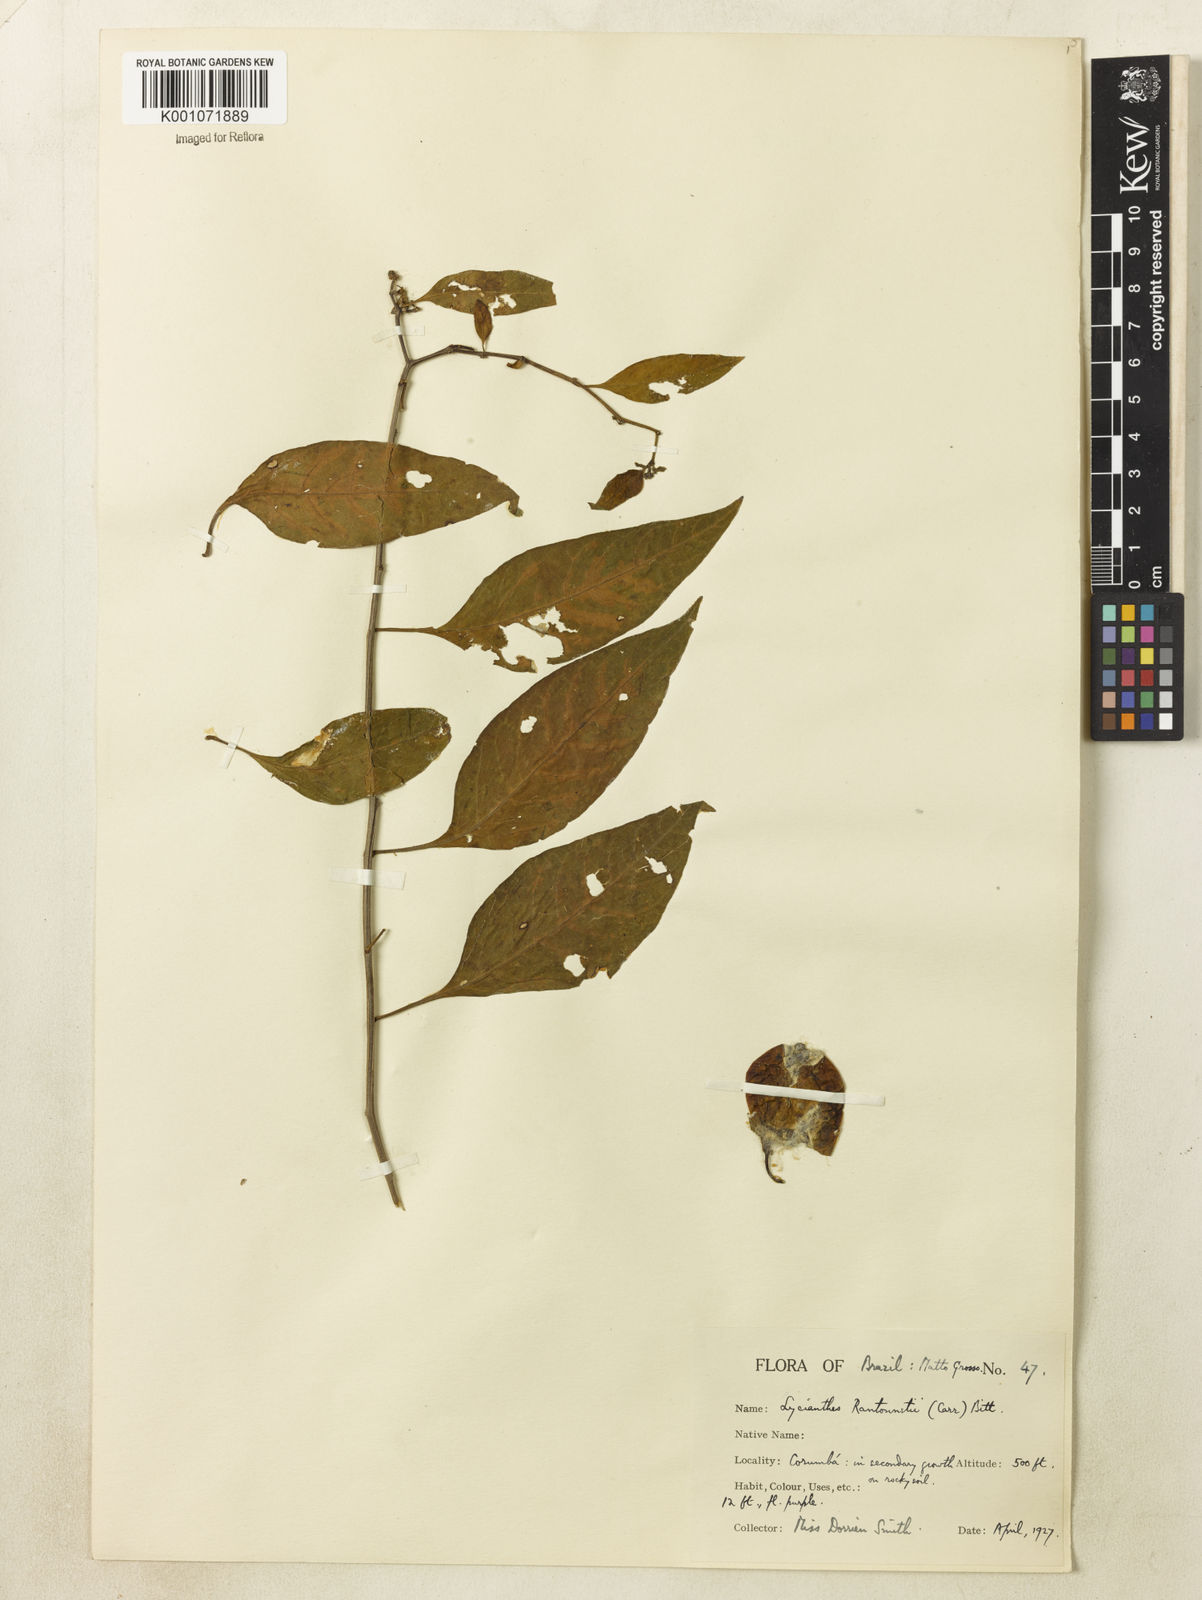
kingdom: Plantae
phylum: Tracheophyta
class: Magnoliopsida
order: Solanales
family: Solanaceae
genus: Lycianthes
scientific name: Lycianthes
